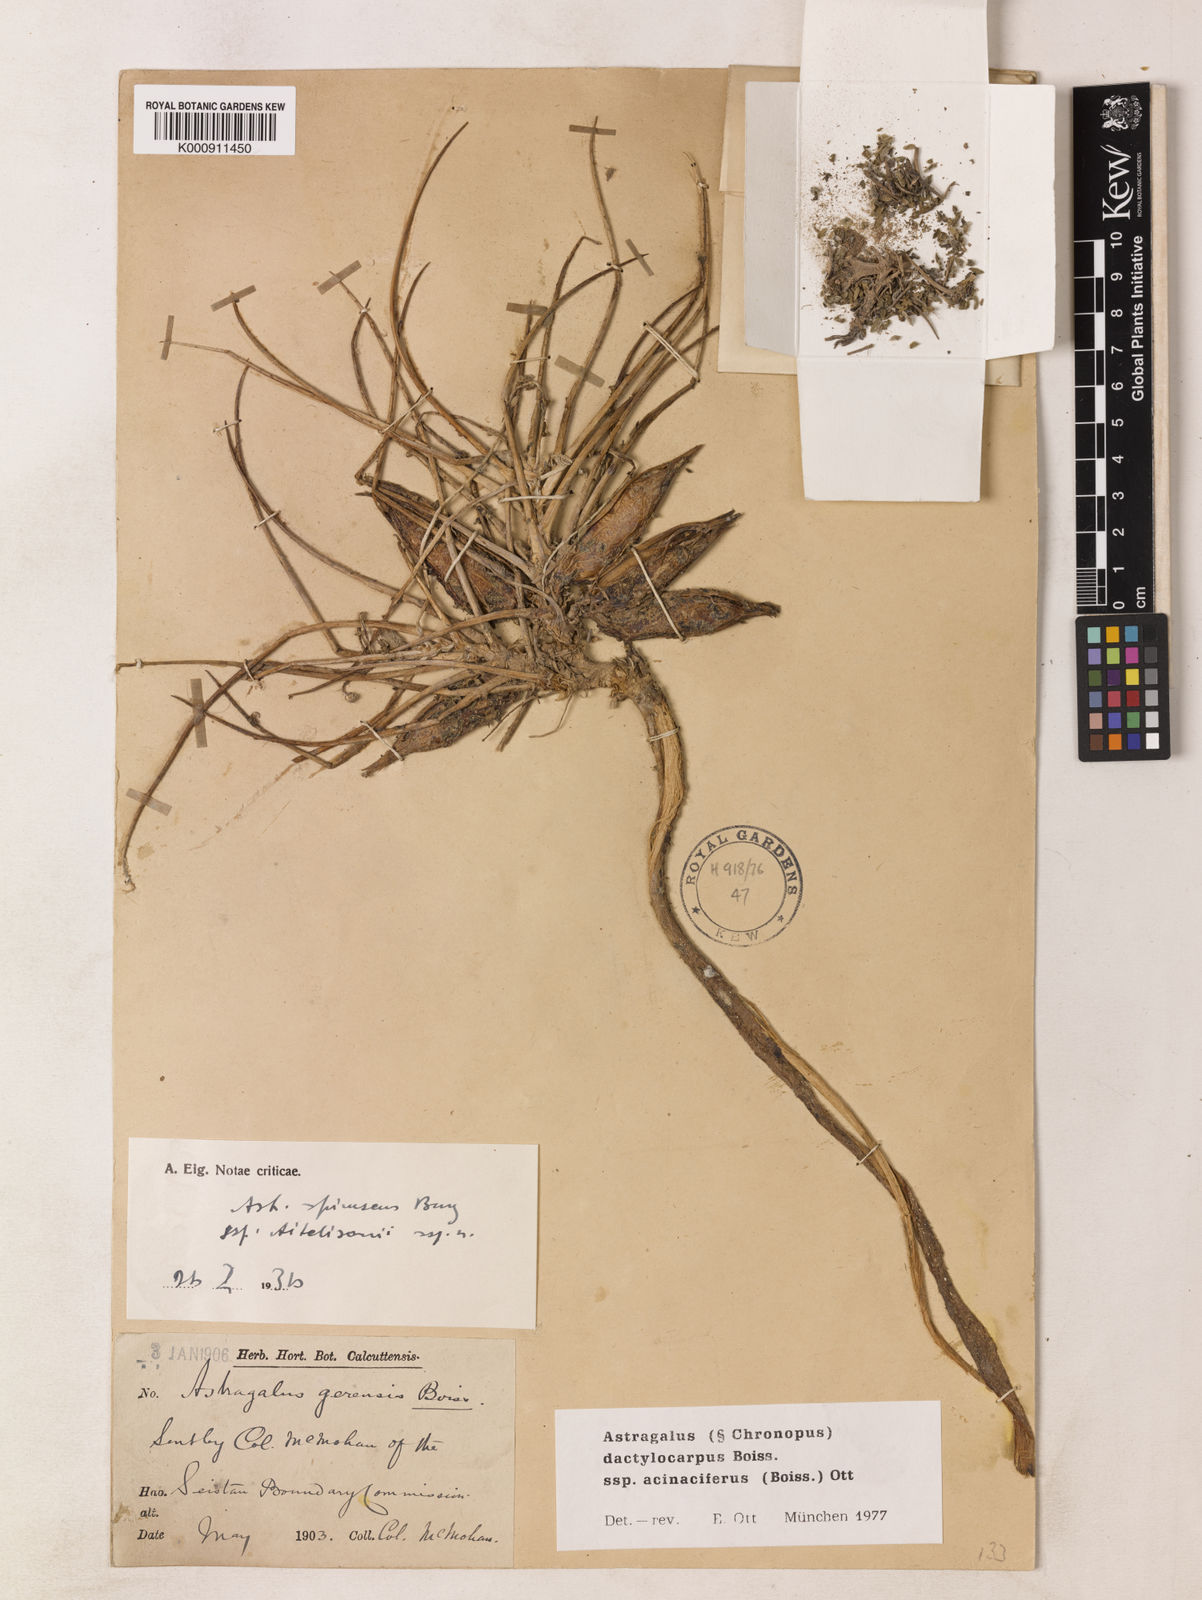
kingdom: Plantae
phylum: Tracheophyta
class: Magnoliopsida
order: Fabales
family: Fabaceae
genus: Astragalus
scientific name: Astragalus dactylocarpus
